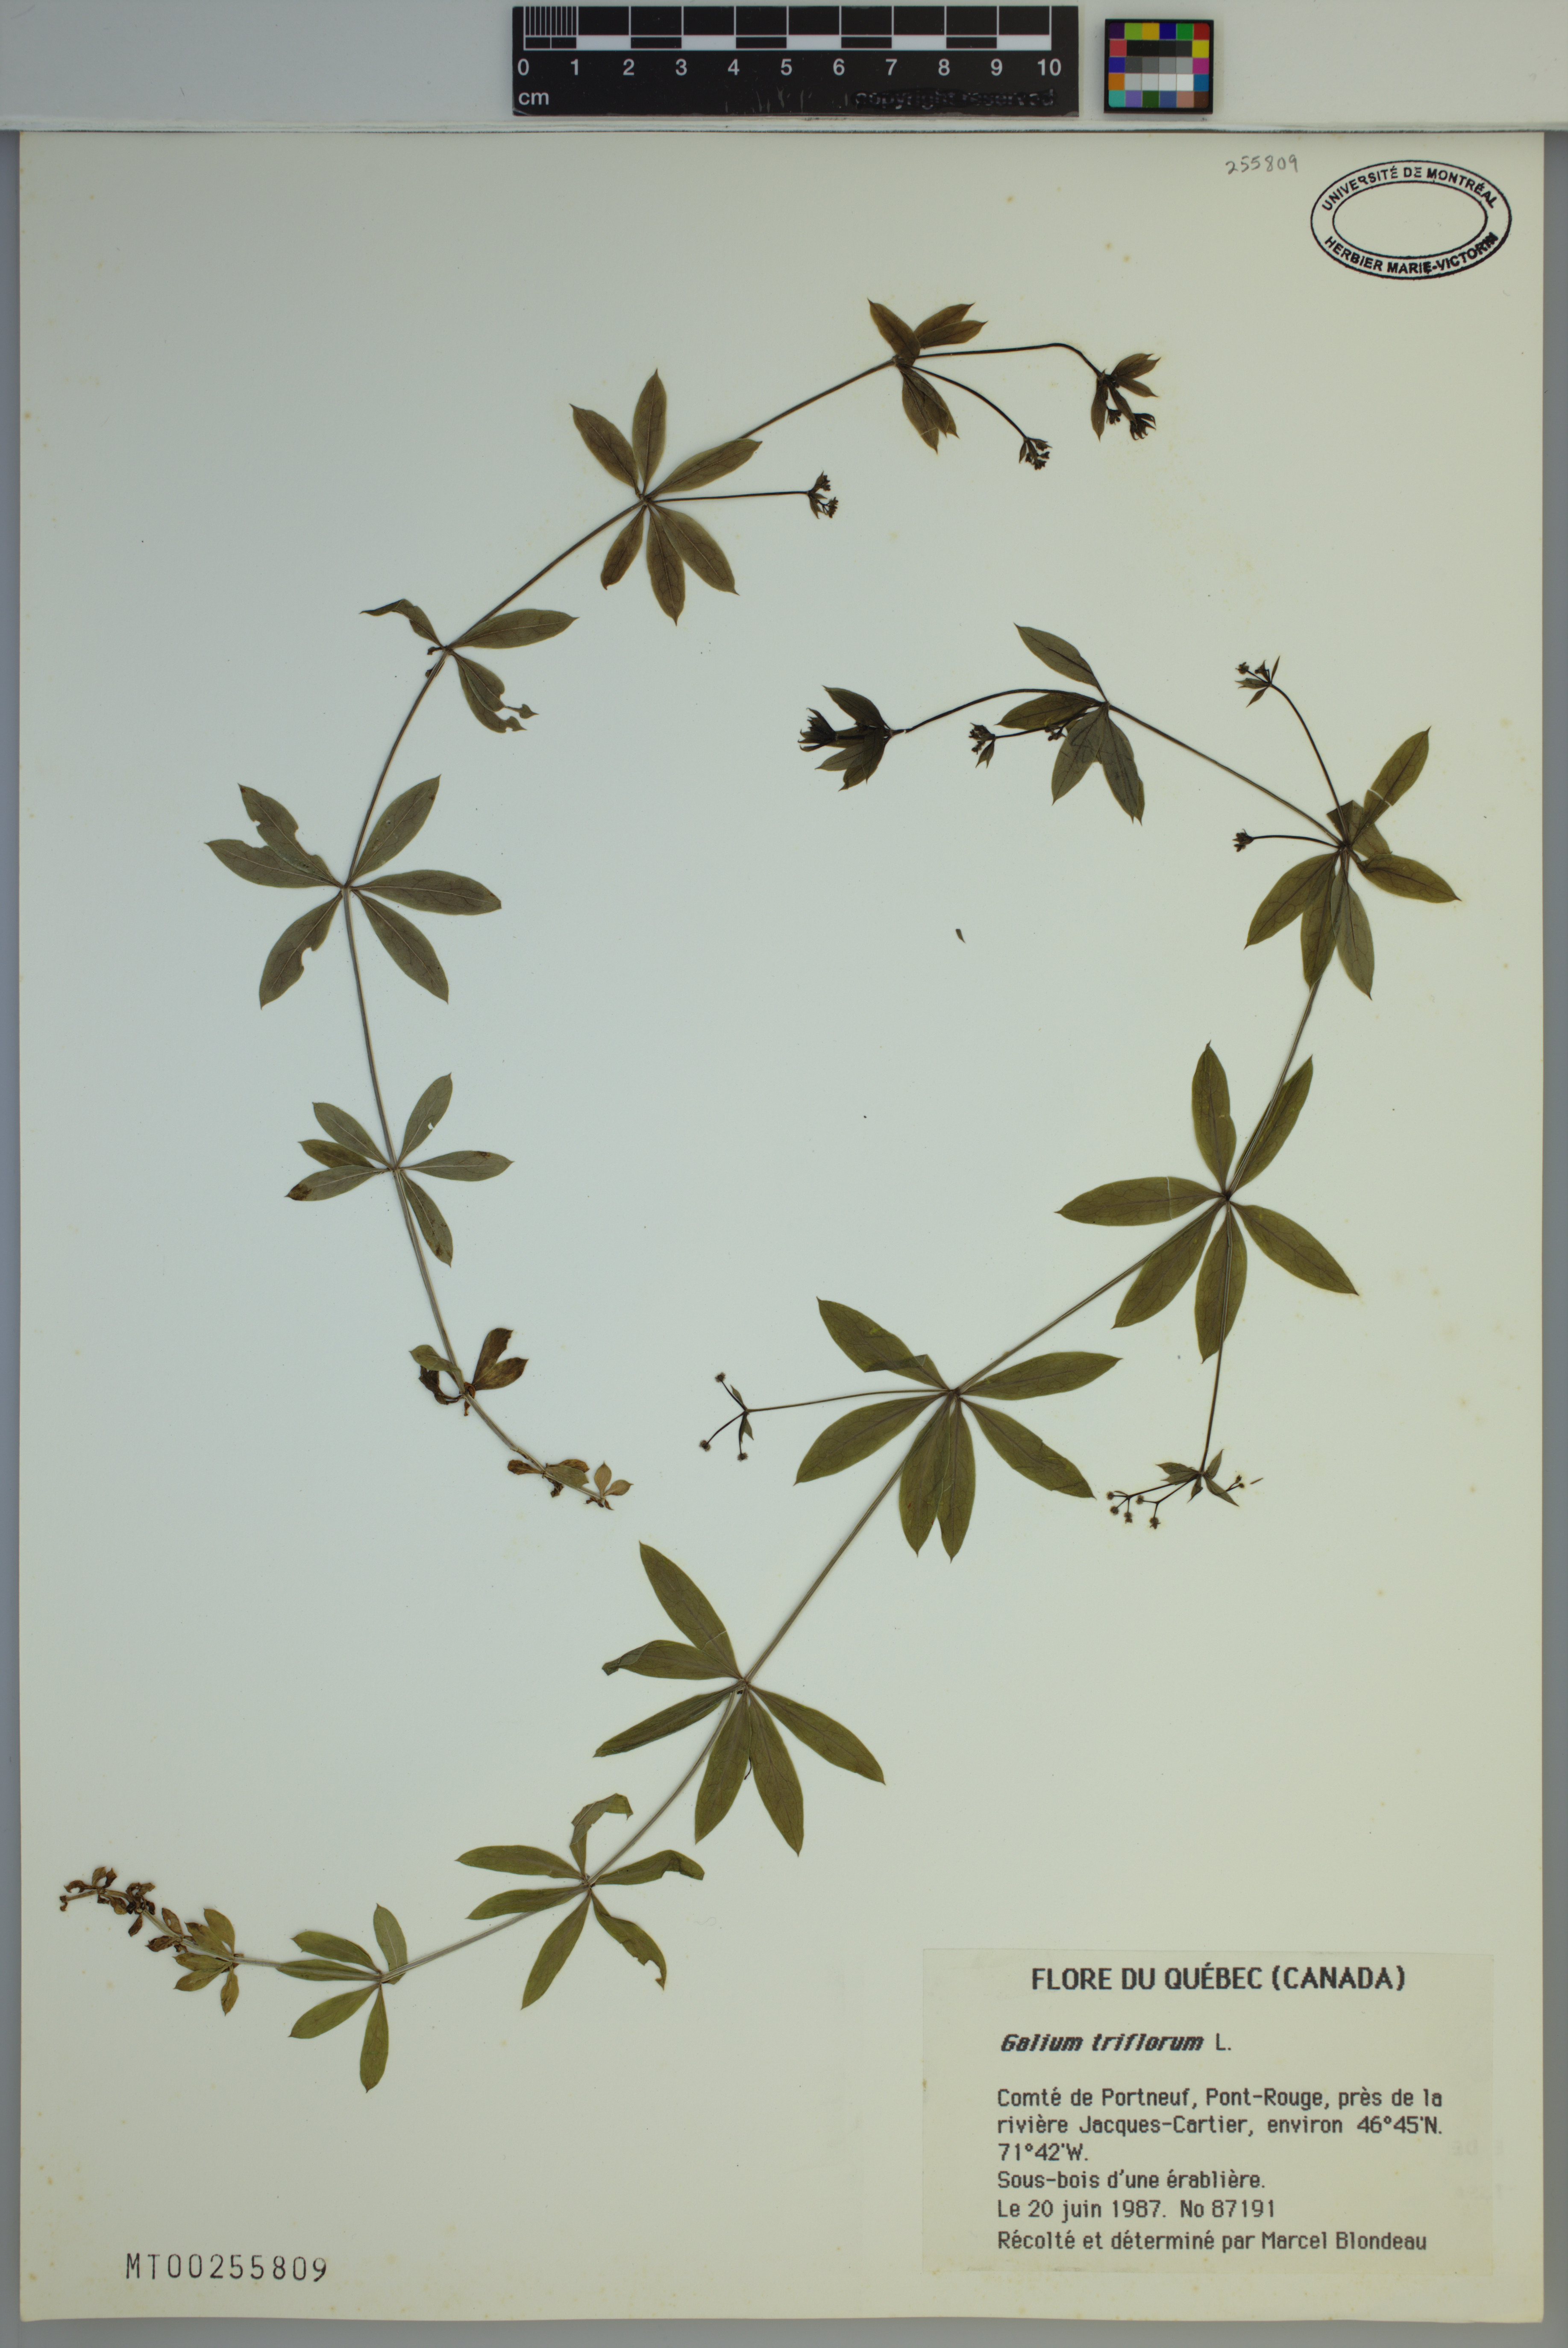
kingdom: Plantae
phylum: Tracheophyta
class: Magnoliopsida
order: Gentianales
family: Rubiaceae
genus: Galium
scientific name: Galium triflorum
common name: Fragrant bedstraw
